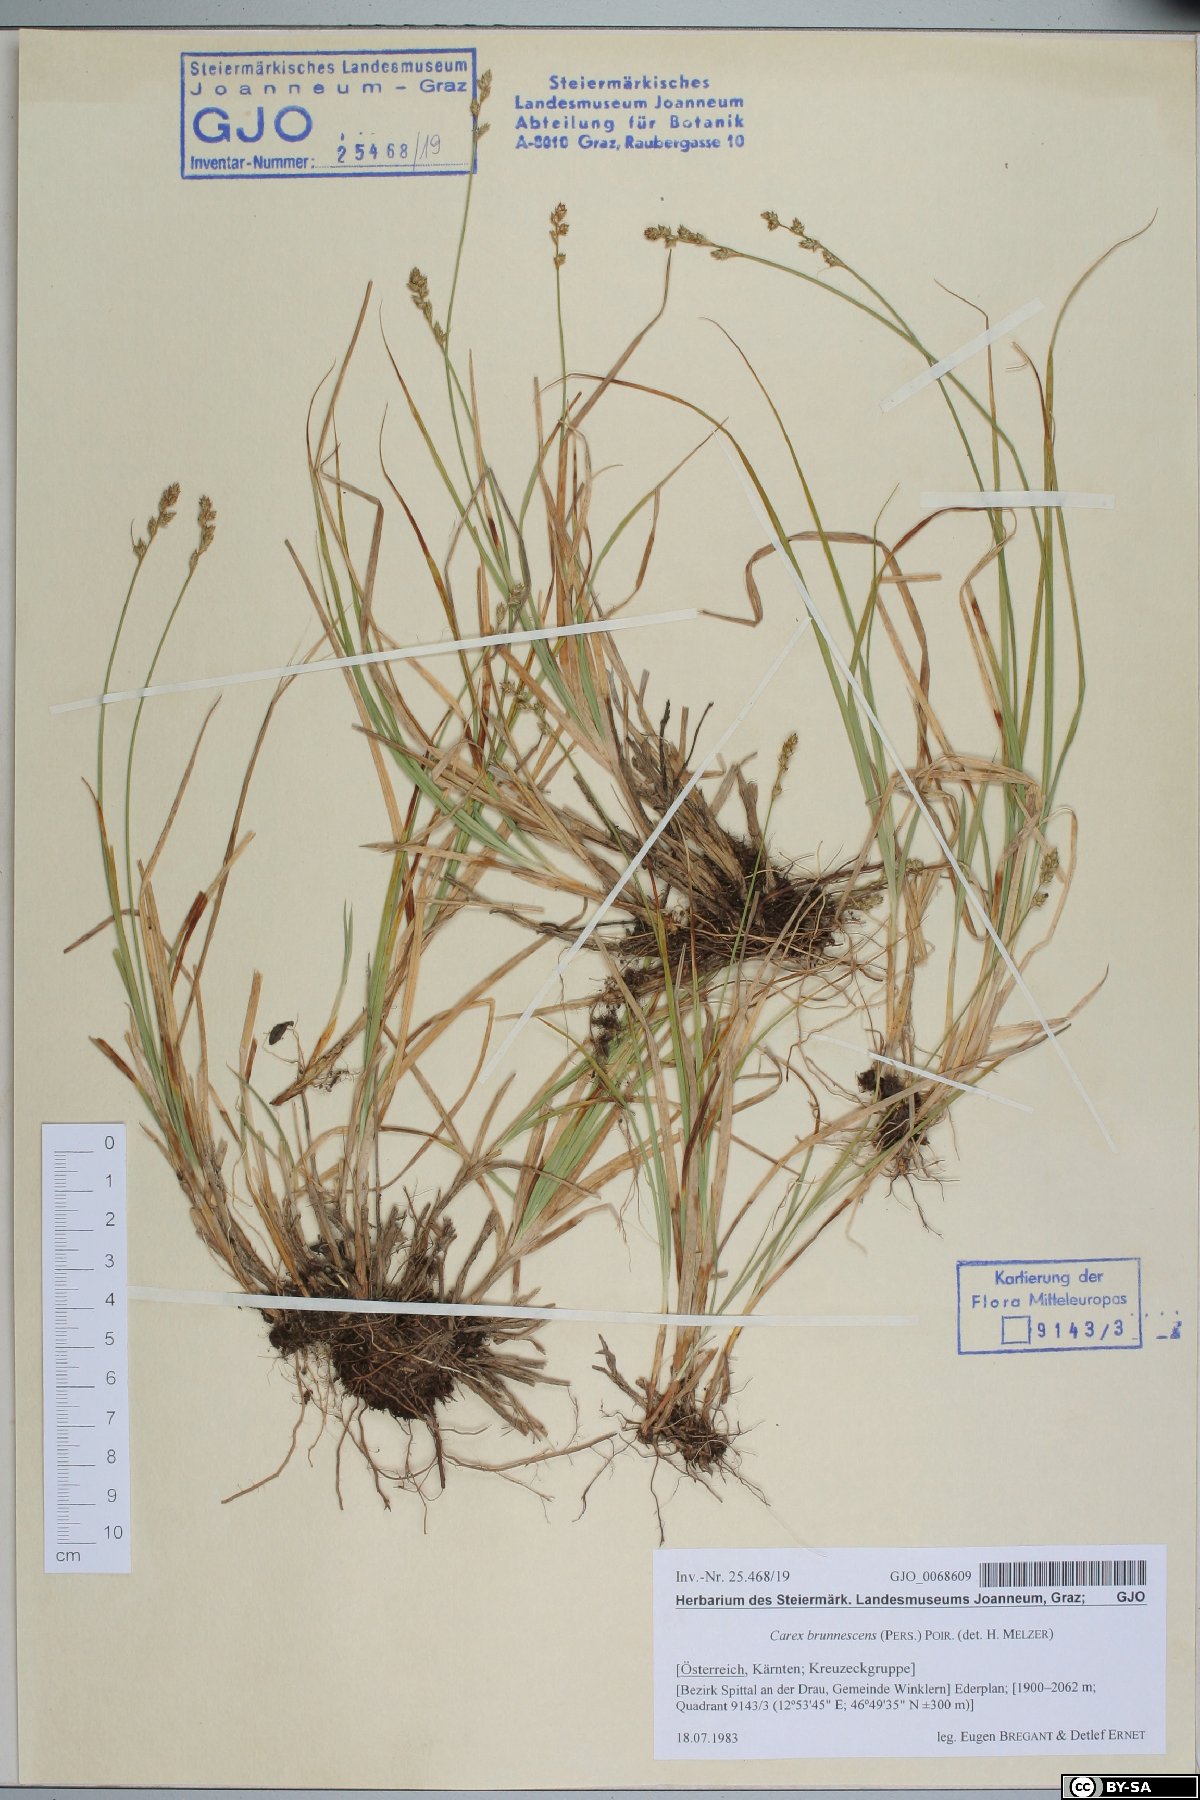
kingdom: Plantae
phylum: Tracheophyta
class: Liliopsida
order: Poales
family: Cyperaceae
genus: Carex
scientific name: Carex brunnescens
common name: Brown sedge
